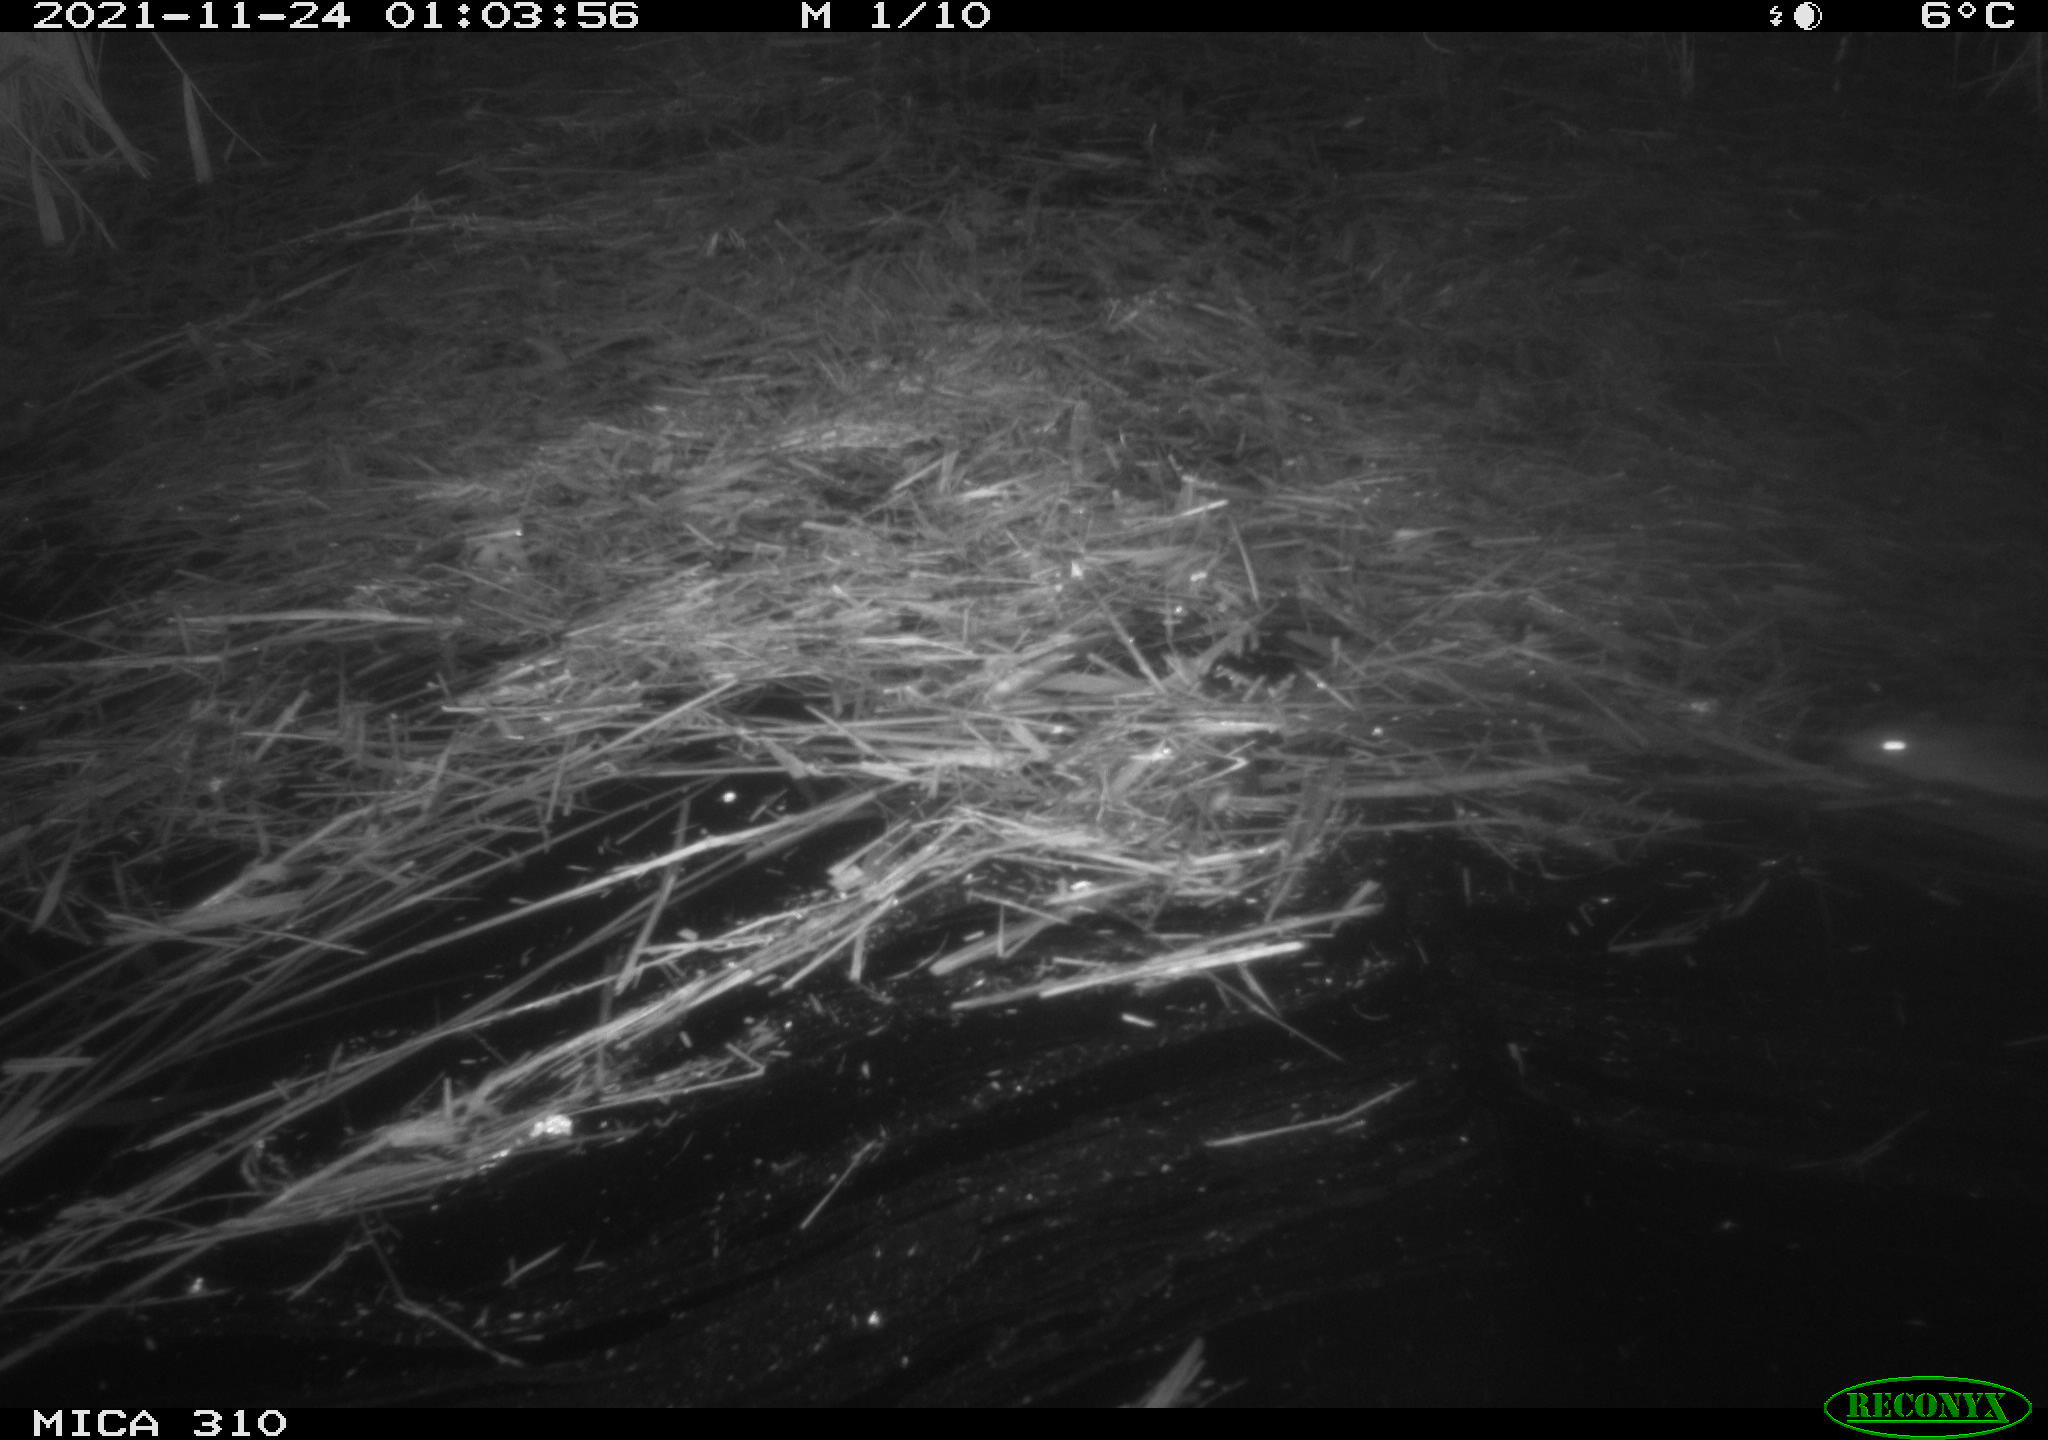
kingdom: Animalia
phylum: Chordata
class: Mammalia
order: Rodentia
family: Muridae
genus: Rattus
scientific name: Rattus norvegicus
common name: Brown rat
